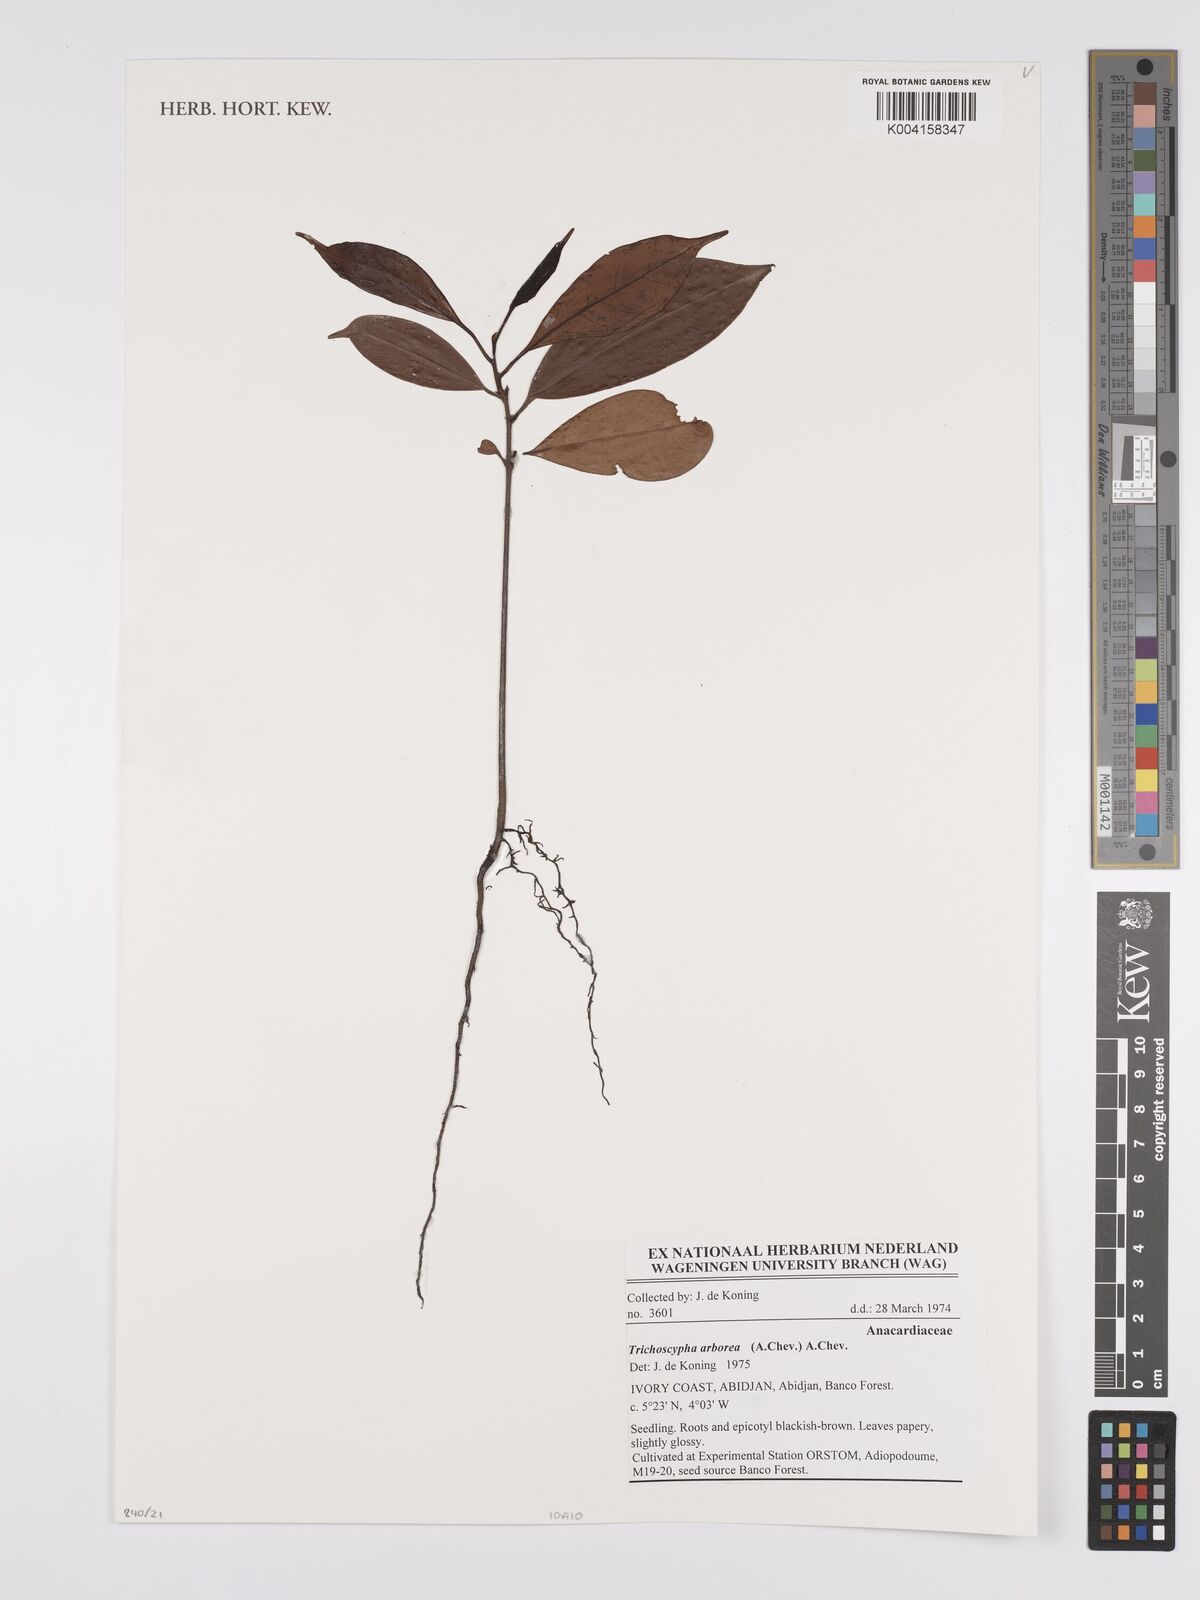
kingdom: Plantae
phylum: Tracheophyta
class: Magnoliopsida
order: Sapindales
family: Anacardiaceae
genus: Trichoscypha
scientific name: Trichoscypha
